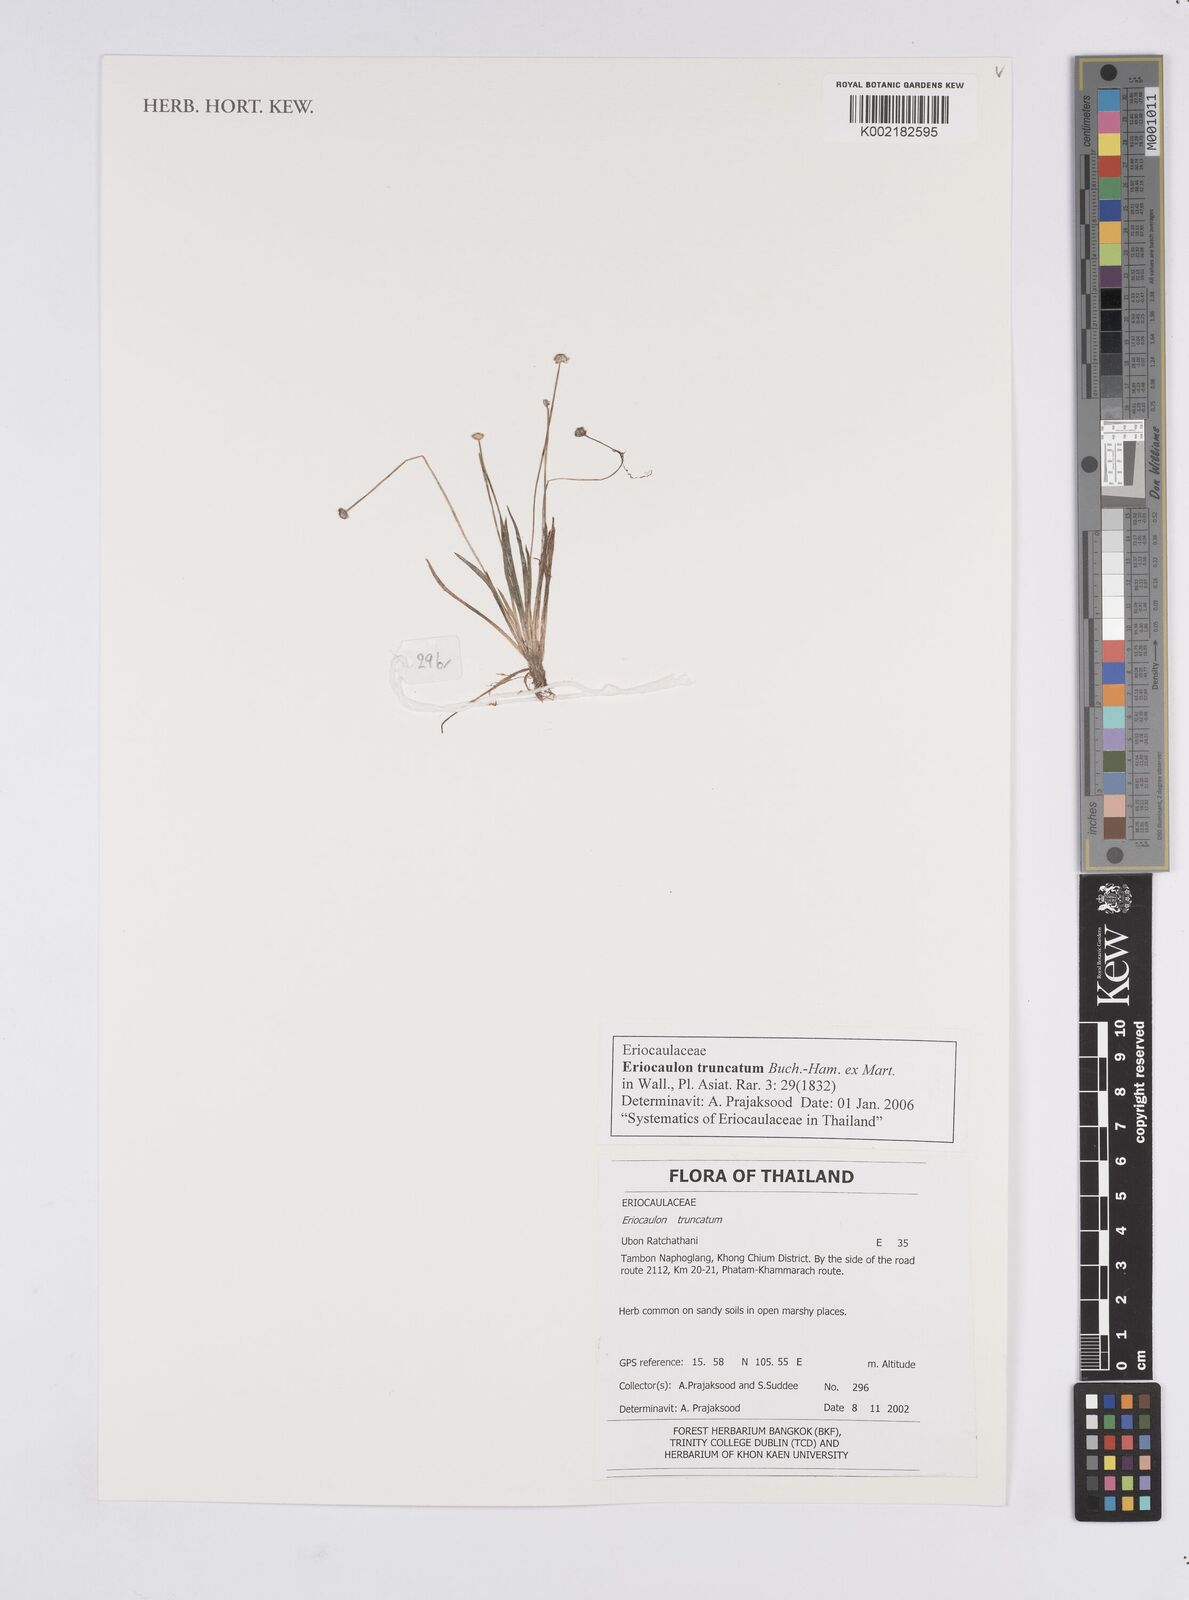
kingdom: Plantae
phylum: Tracheophyta
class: Liliopsida
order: Poales
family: Eriocaulaceae
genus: Eriocaulon
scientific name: Eriocaulon truncatum
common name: Short pipe-wort
